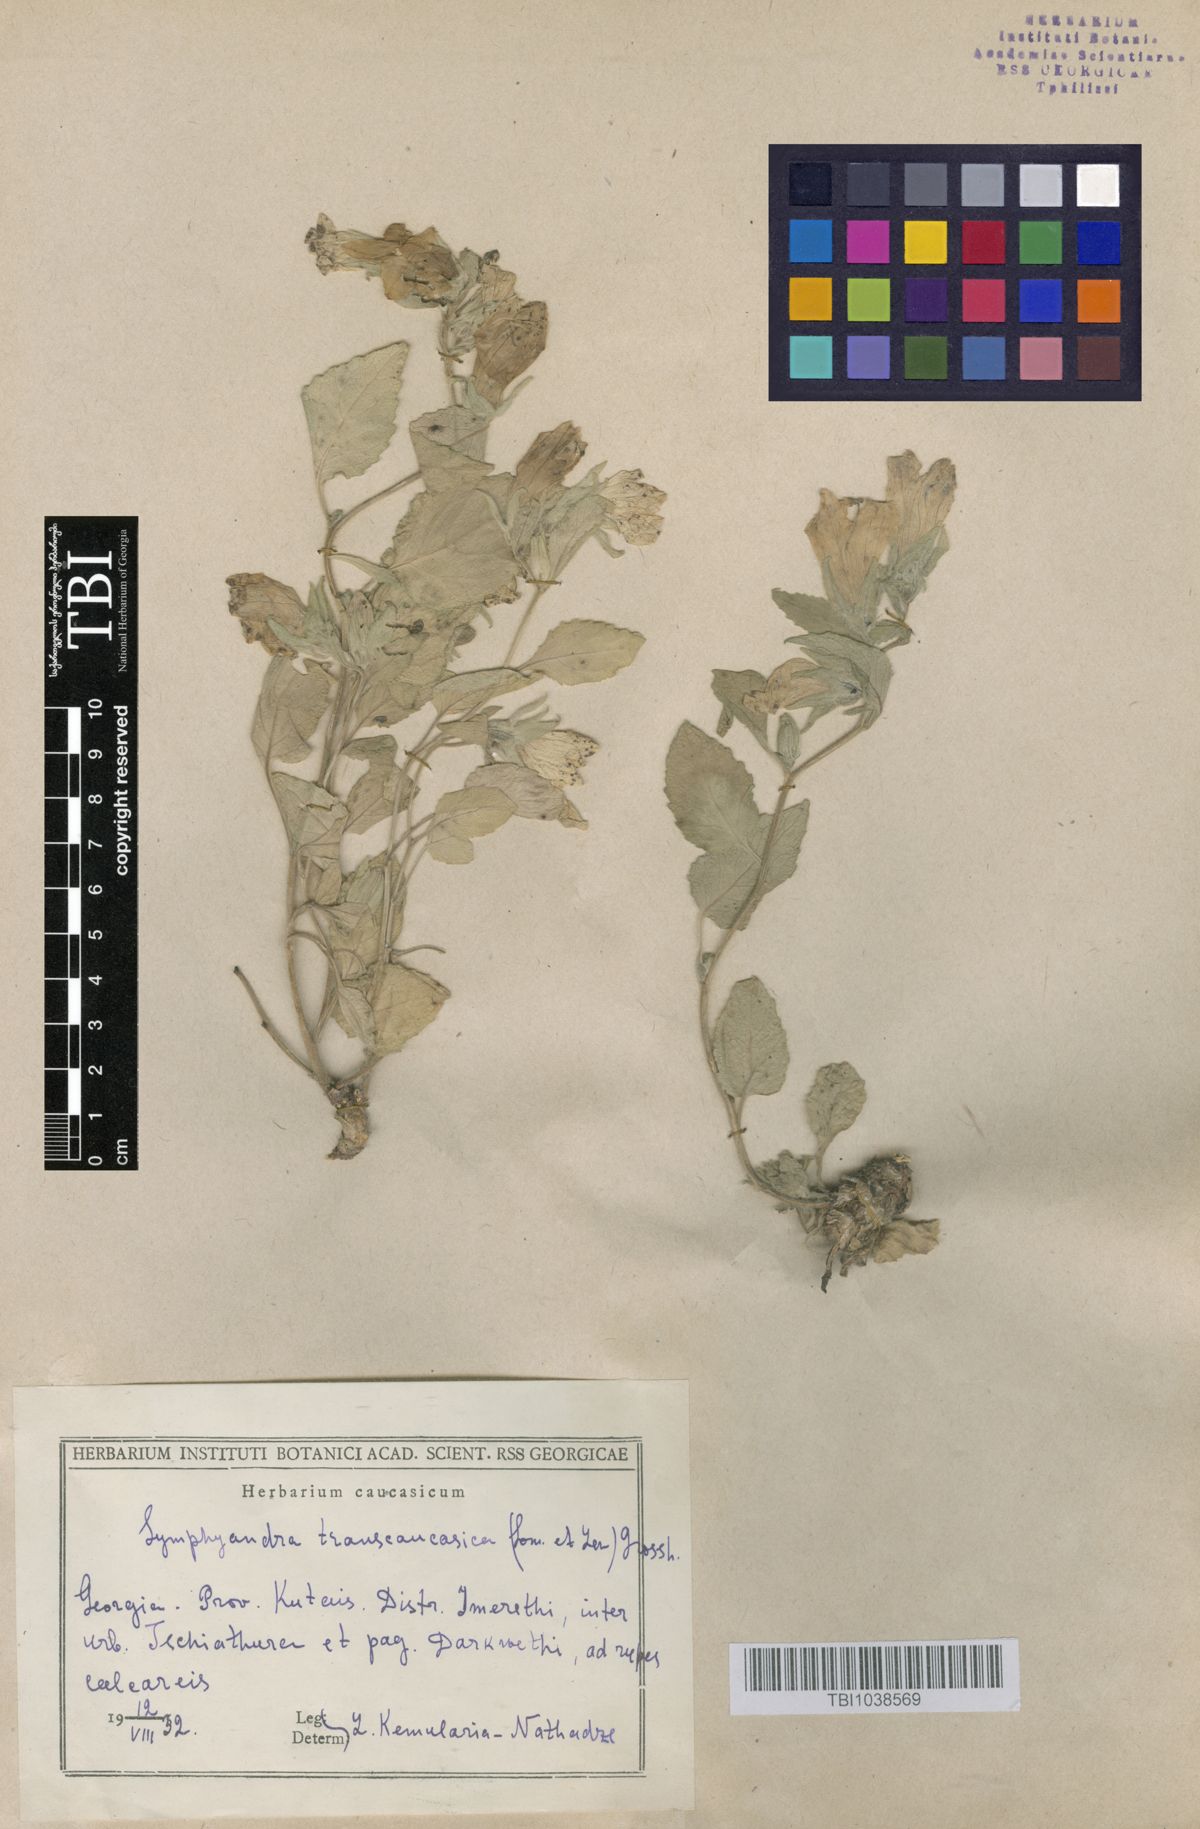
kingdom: Plantae
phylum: Tracheophyta
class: Magnoliopsida
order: Asterales
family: Campanulaceae
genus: Campanula
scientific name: Campanula pendula
